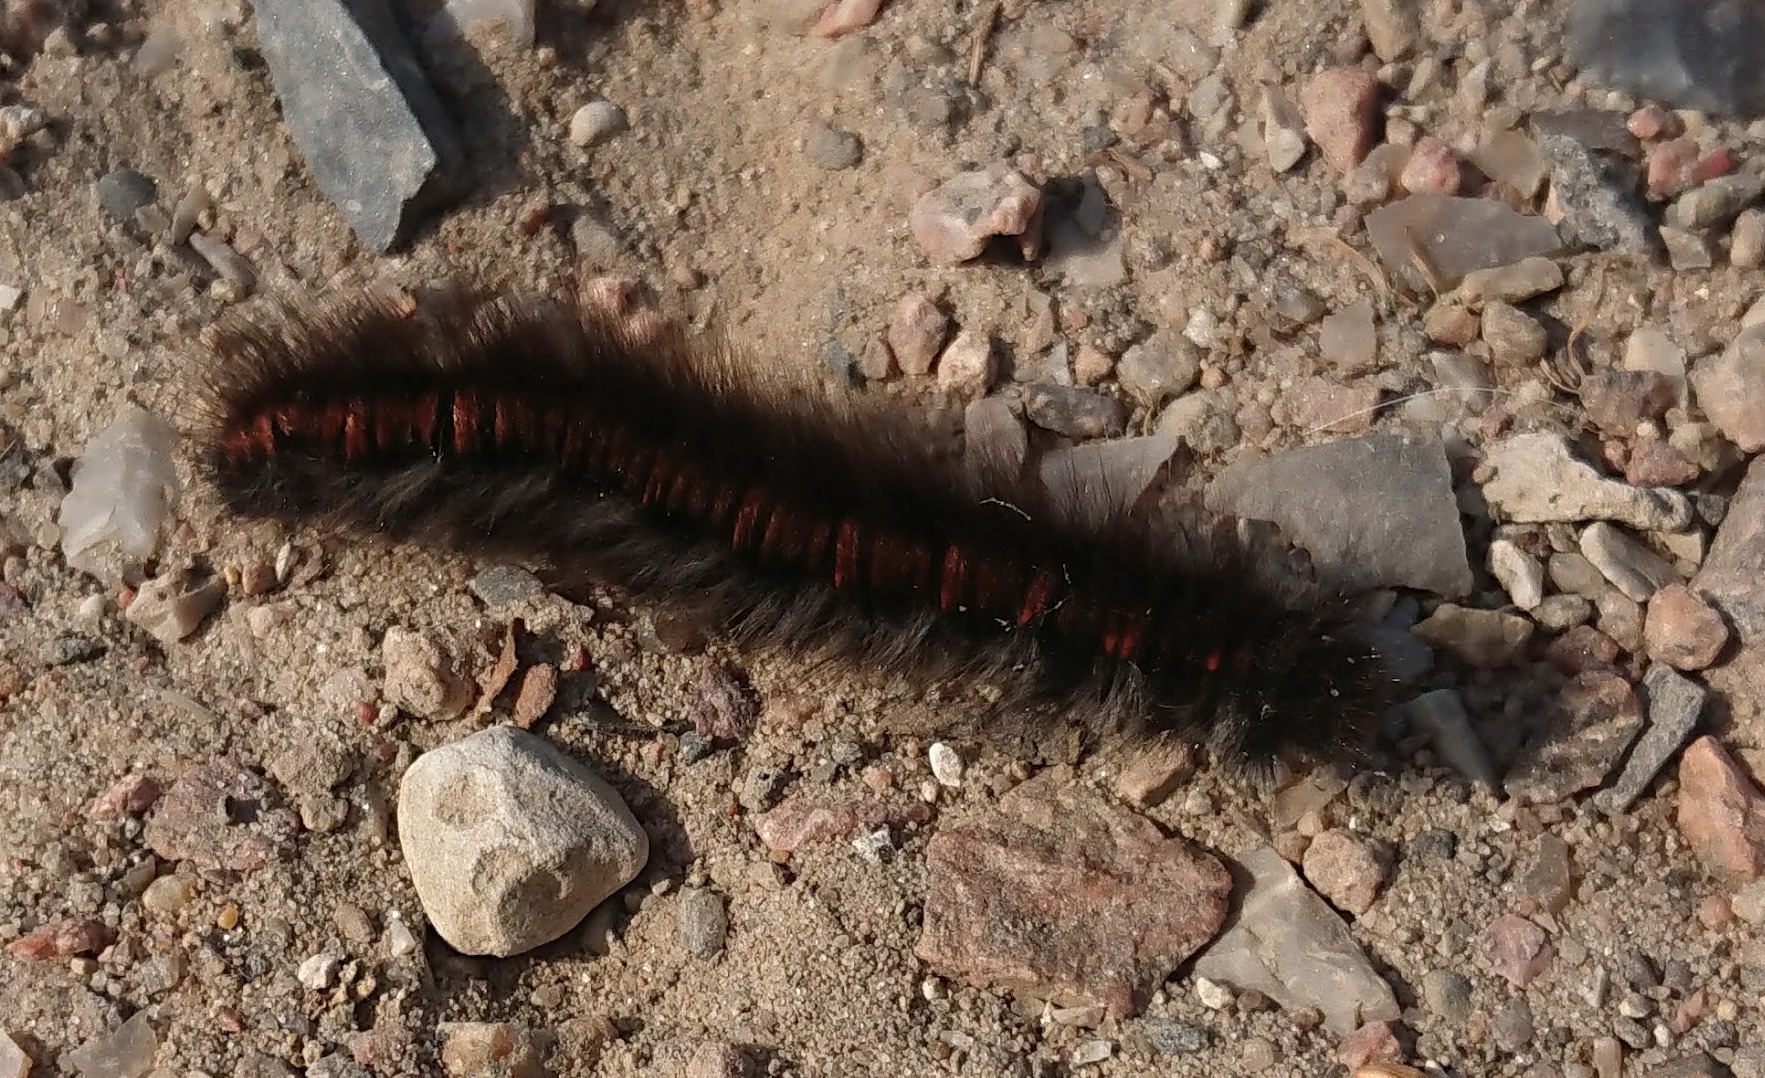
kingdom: Animalia
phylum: Arthropoda
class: Insecta
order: Lepidoptera
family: Lasiocampidae
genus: Macrothylacia
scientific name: Macrothylacia rubi
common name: Brombærspinder
